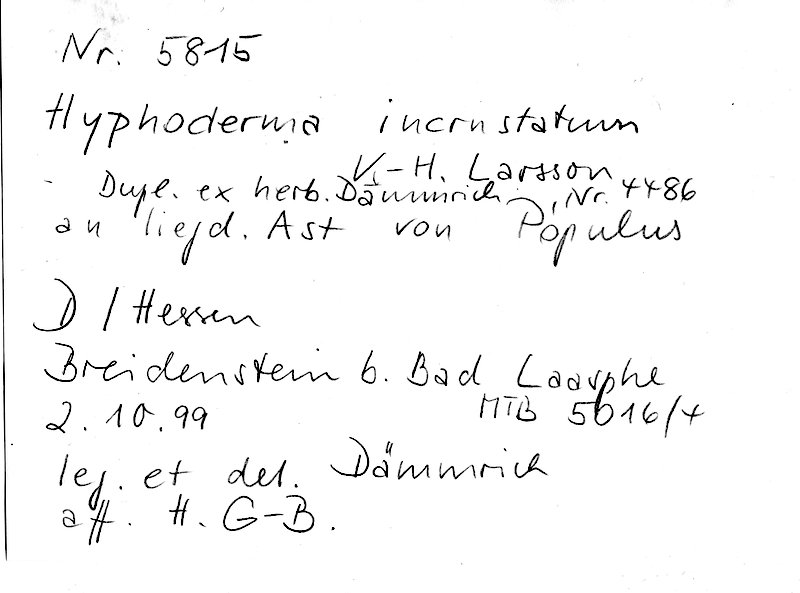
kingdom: Fungi
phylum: Basidiomycota
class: Agaricomycetes
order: Polyporales
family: Hyphodermataceae
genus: Hyphoderma
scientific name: Hyphoderma incrustatum
